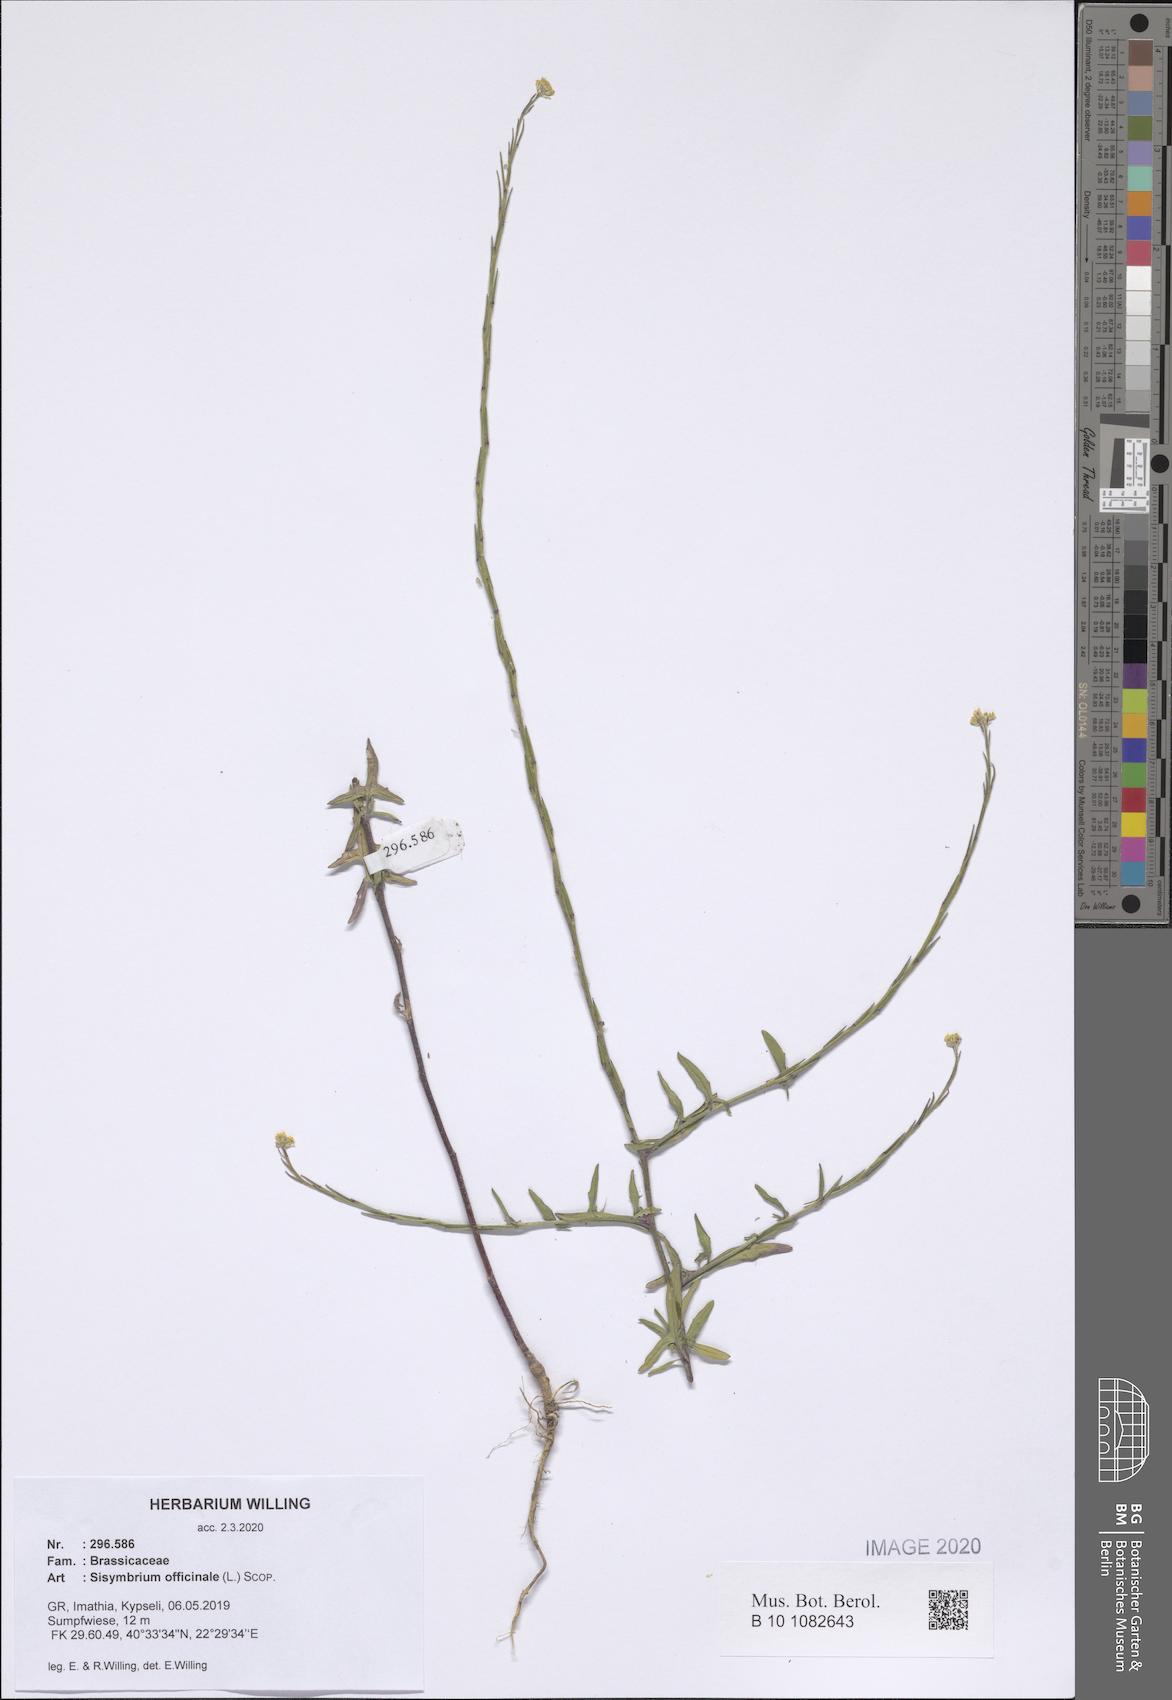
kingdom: Plantae
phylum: Tracheophyta
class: Magnoliopsida
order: Brassicales
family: Brassicaceae
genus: Sisymbrium
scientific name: Sisymbrium officinale
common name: Hedge mustard
